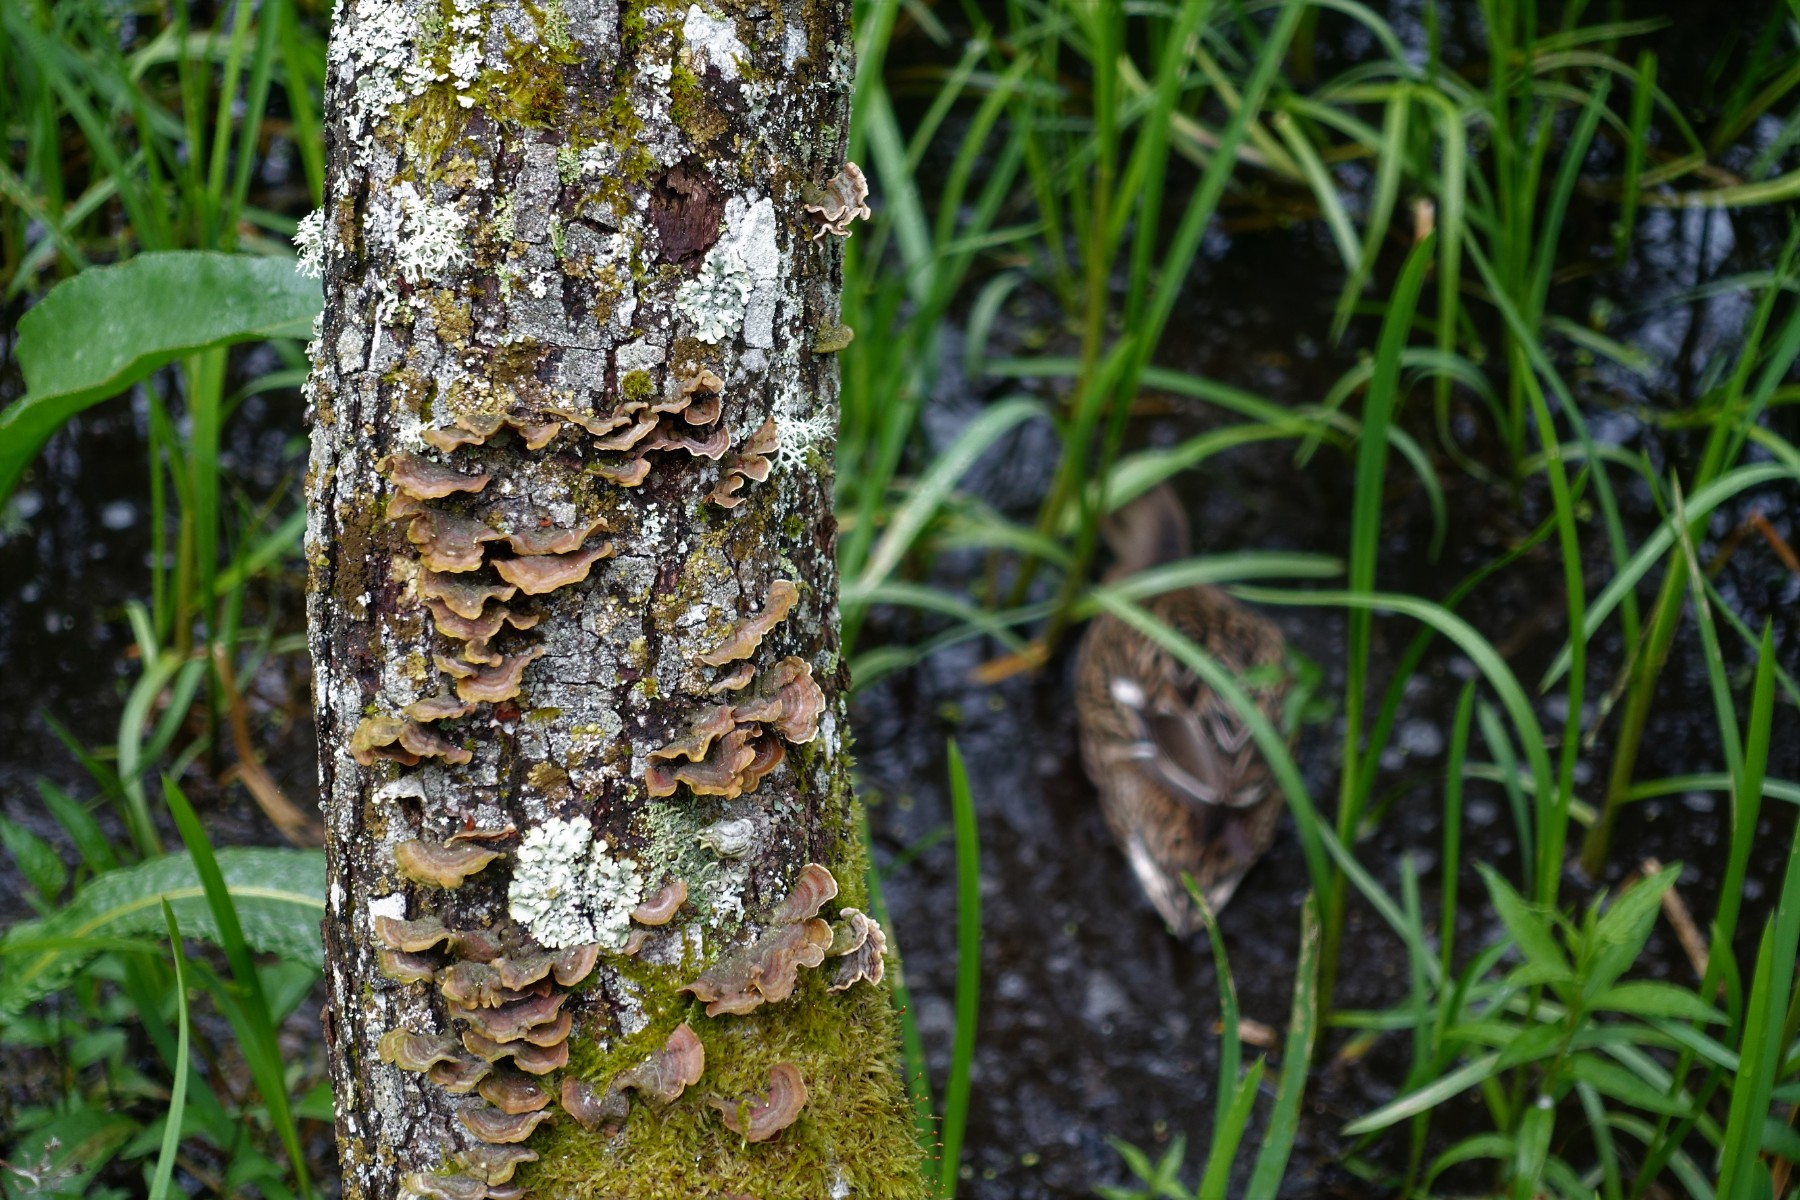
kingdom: Fungi
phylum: Basidiomycota
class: Agaricomycetes
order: Russulales
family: Stereaceae
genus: Stereum
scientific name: Stereum subtomentosum
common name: smuk lædersvamp
